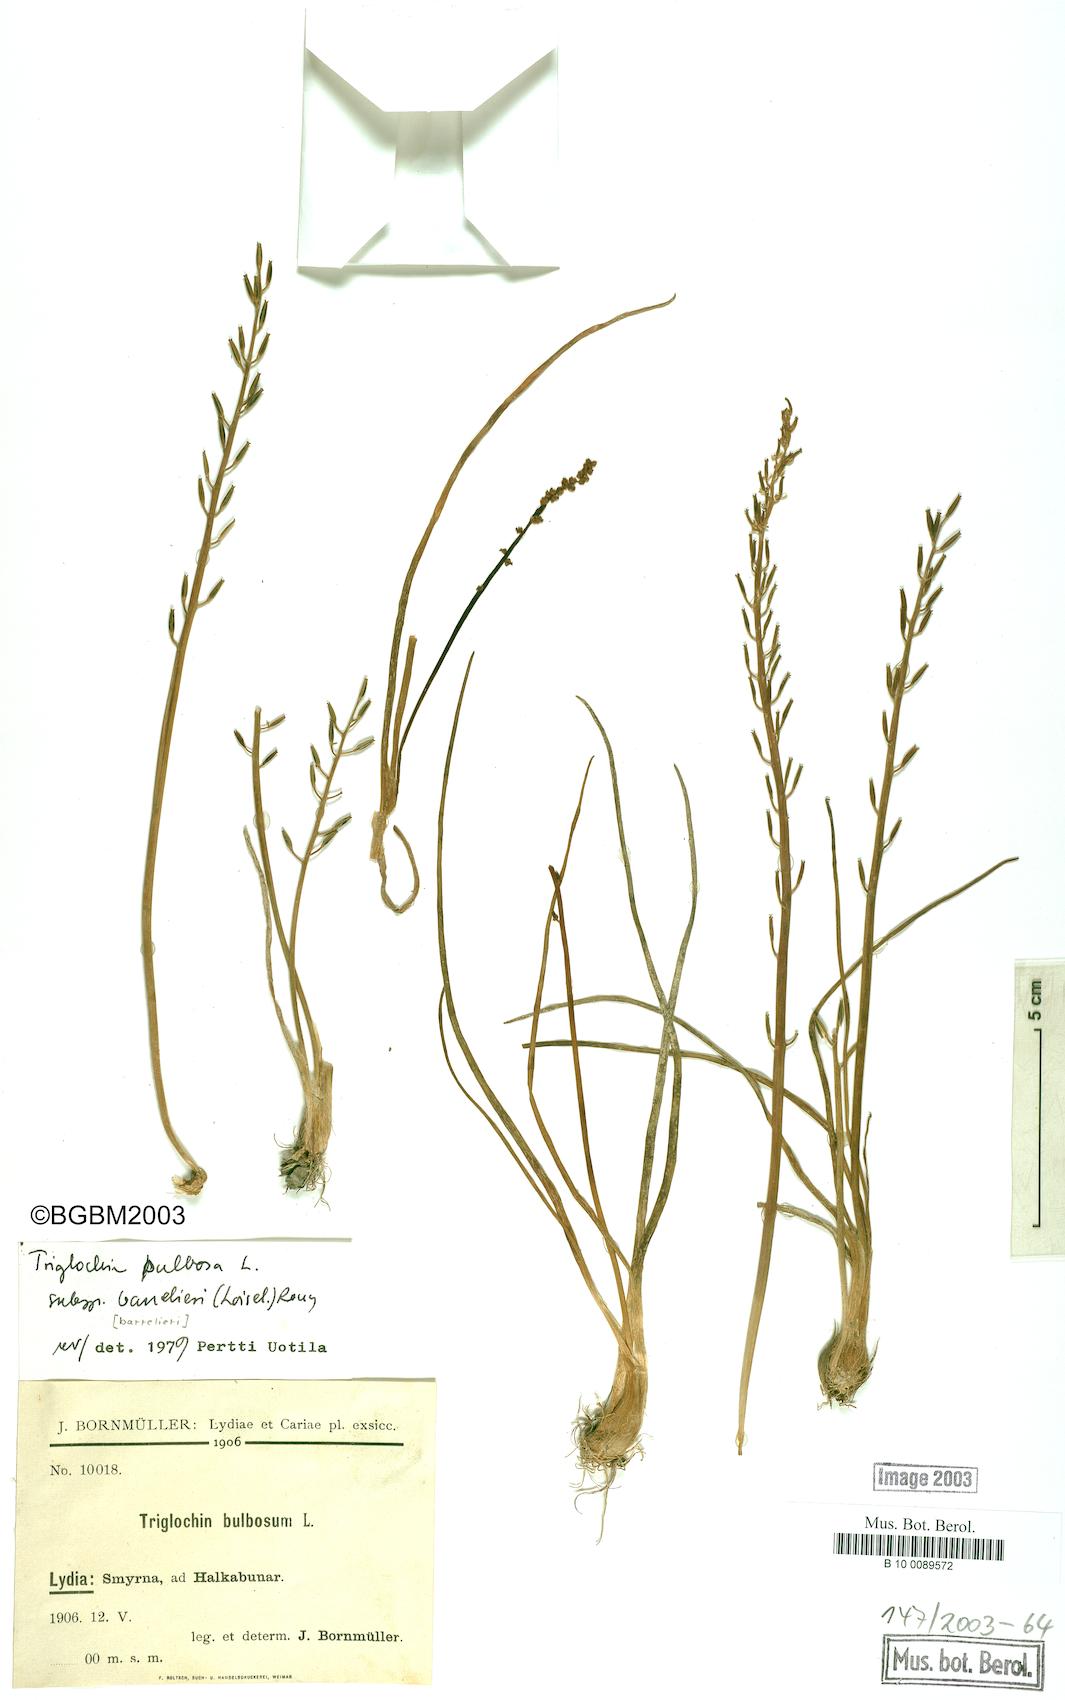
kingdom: Plantae
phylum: Tracheophyta
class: Liliopsida
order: Alismatales
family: Juncaginaceae
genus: Triglochin
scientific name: Triglochin barrelieri
